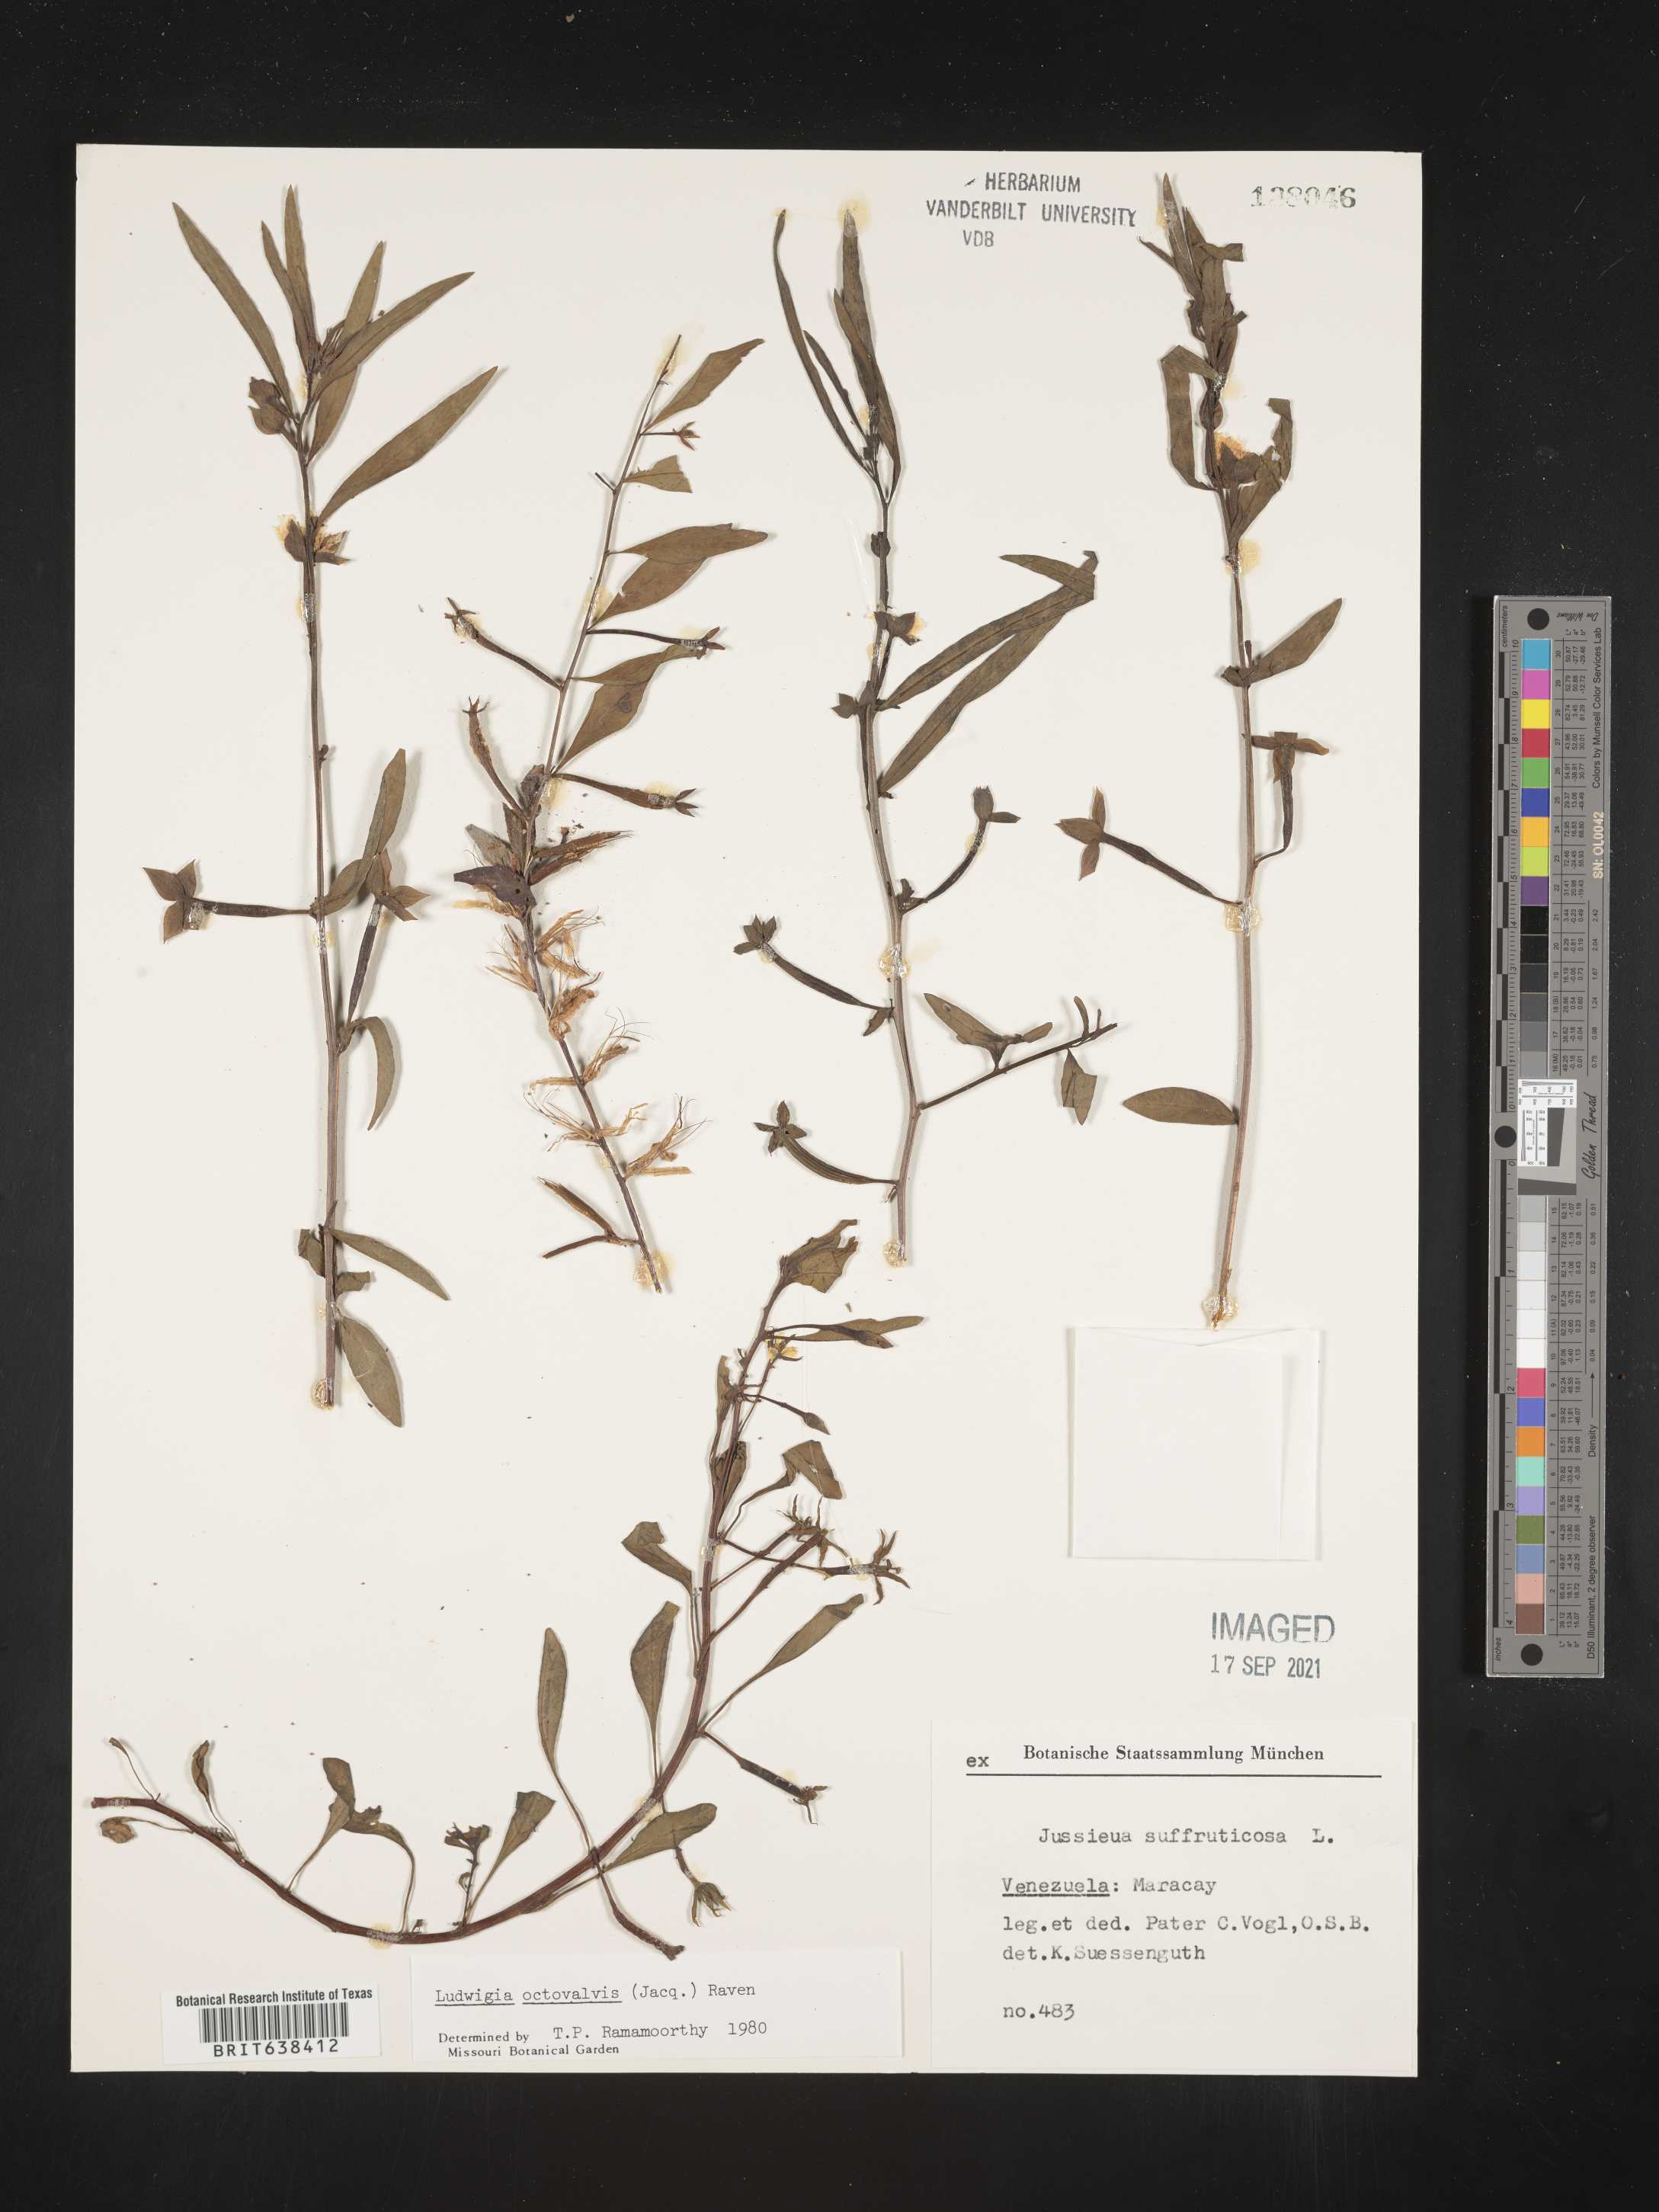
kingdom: Plantae
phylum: Tracheophyta
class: Magnoliopsida
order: Myrtales
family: Onagraceae
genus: Ludwigia
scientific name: Ludwigia
